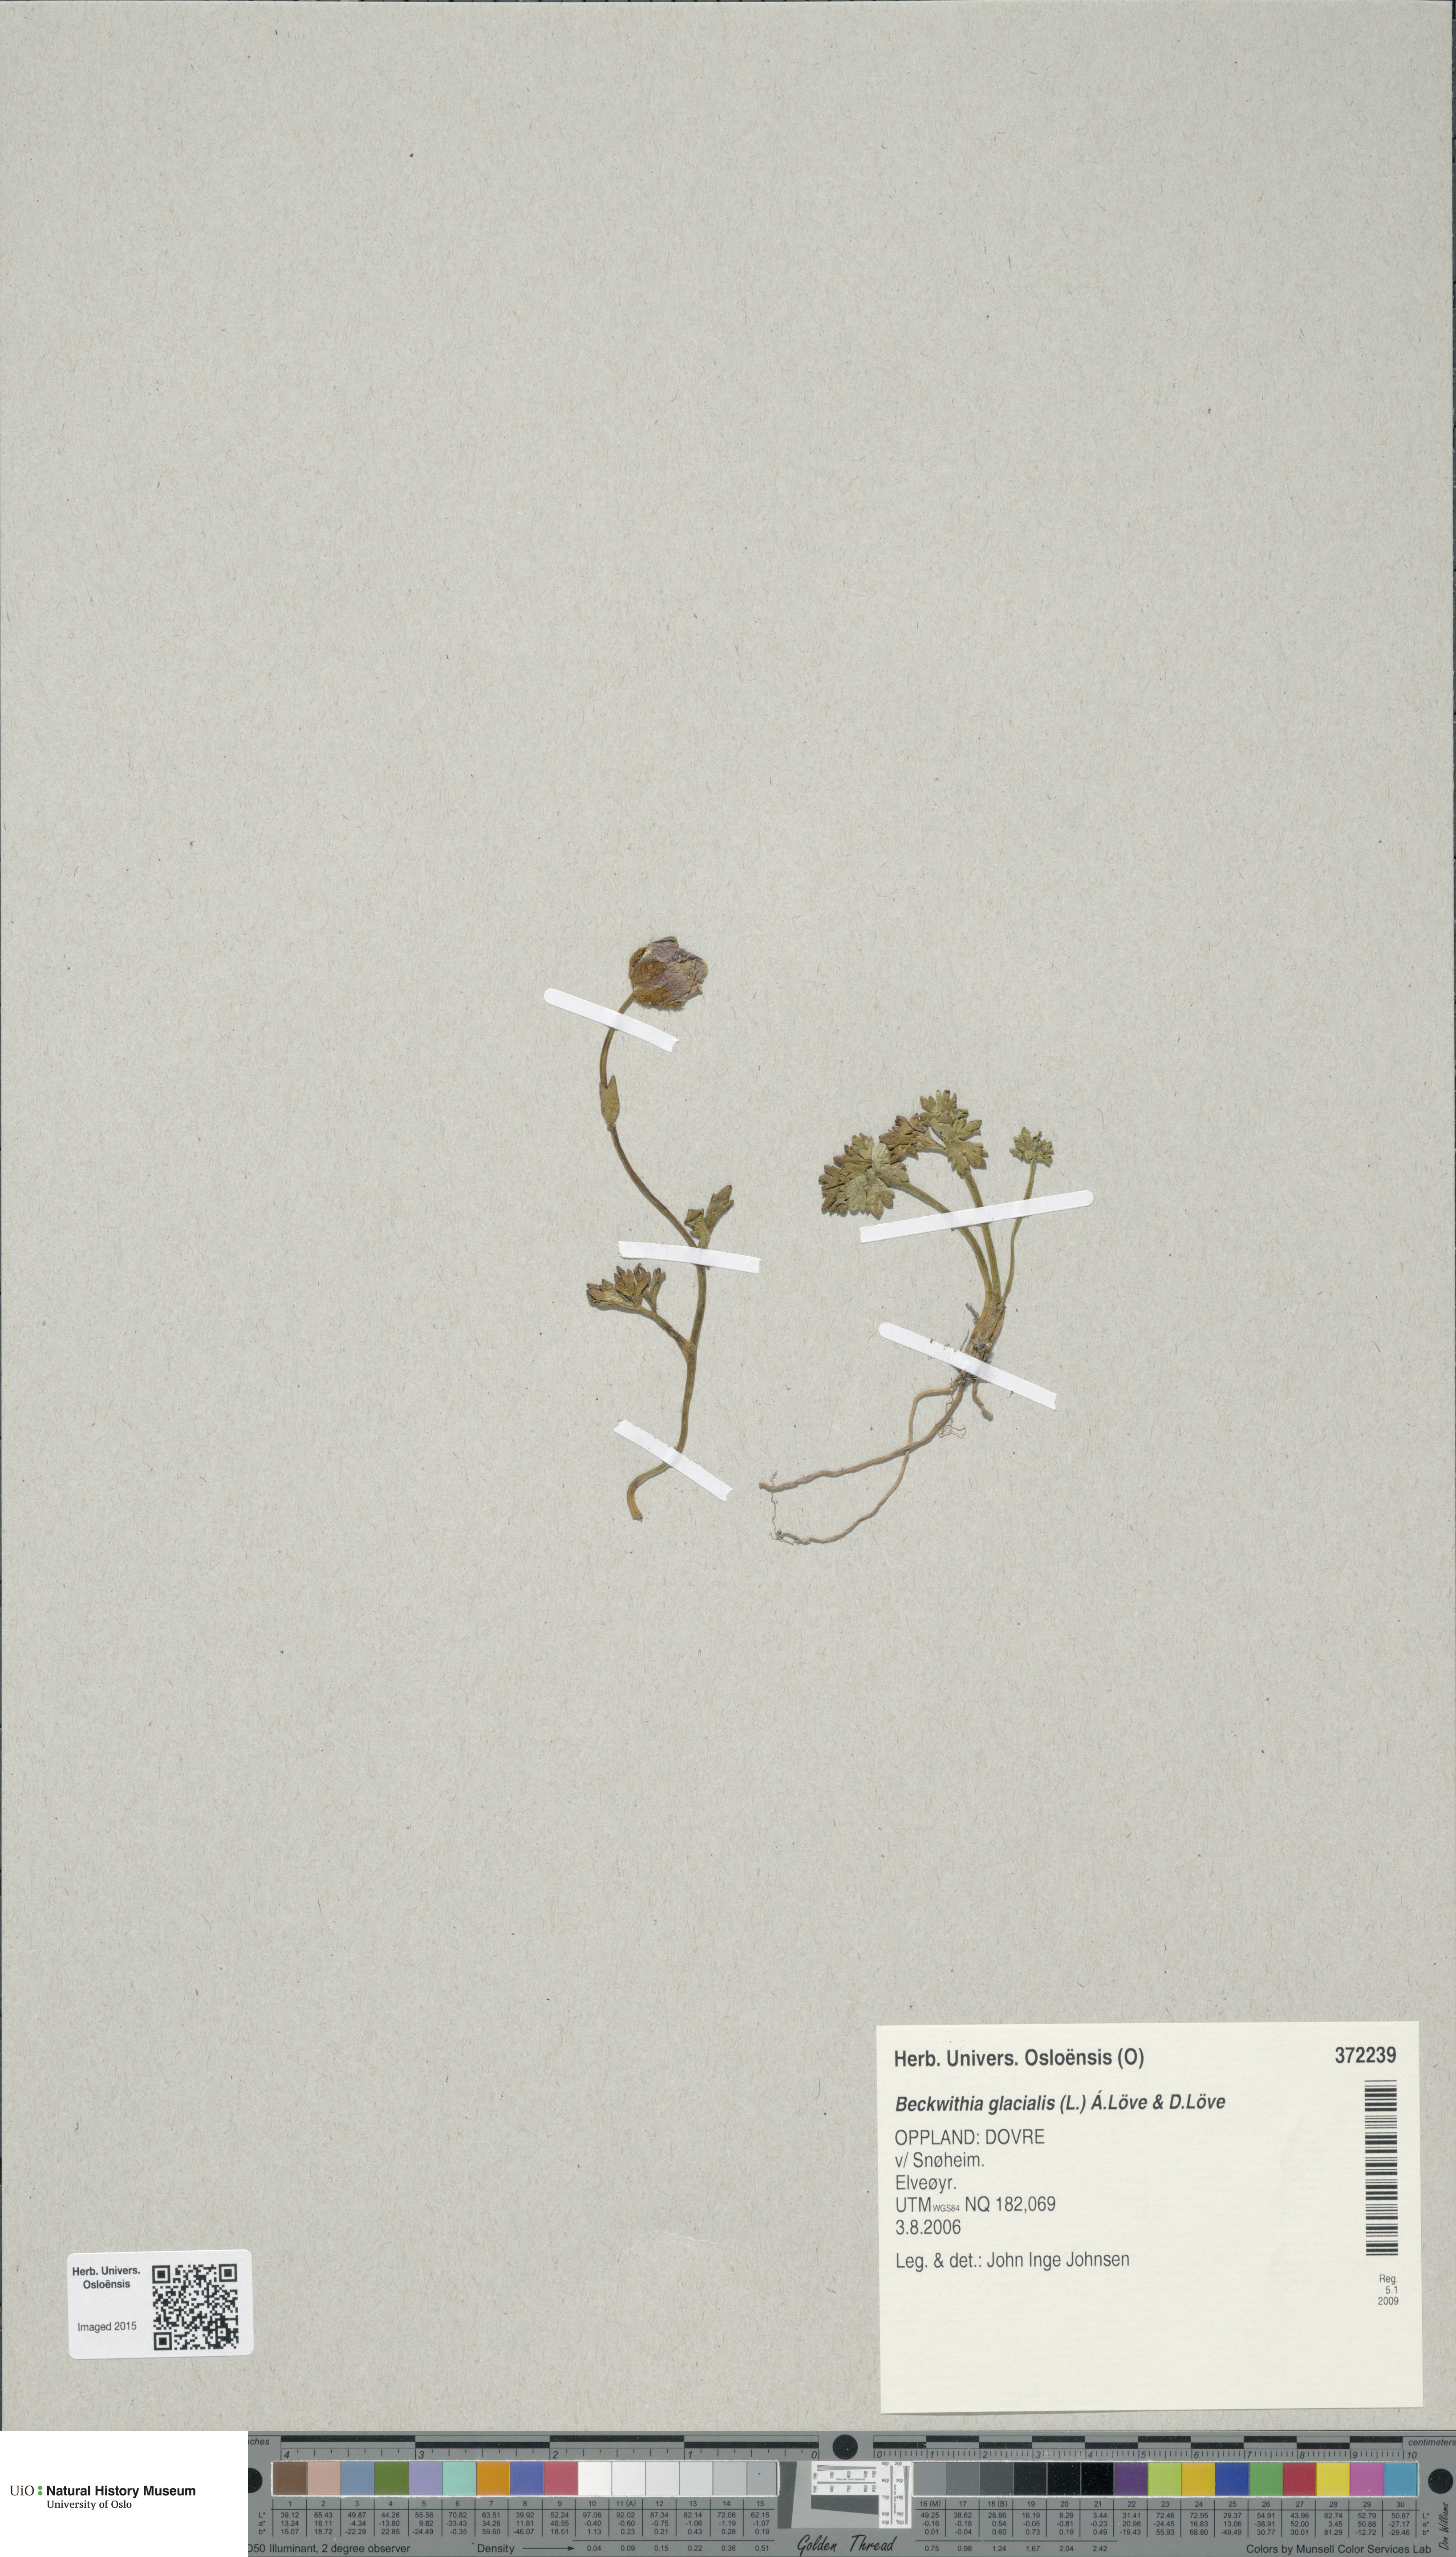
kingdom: Plantae
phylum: Tracheophyta
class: Magnoliopsida
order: Ranunculales
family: Ranunculaceae
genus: Ranunculus
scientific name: Ranunculus glacialis
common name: Glacier buttercup
